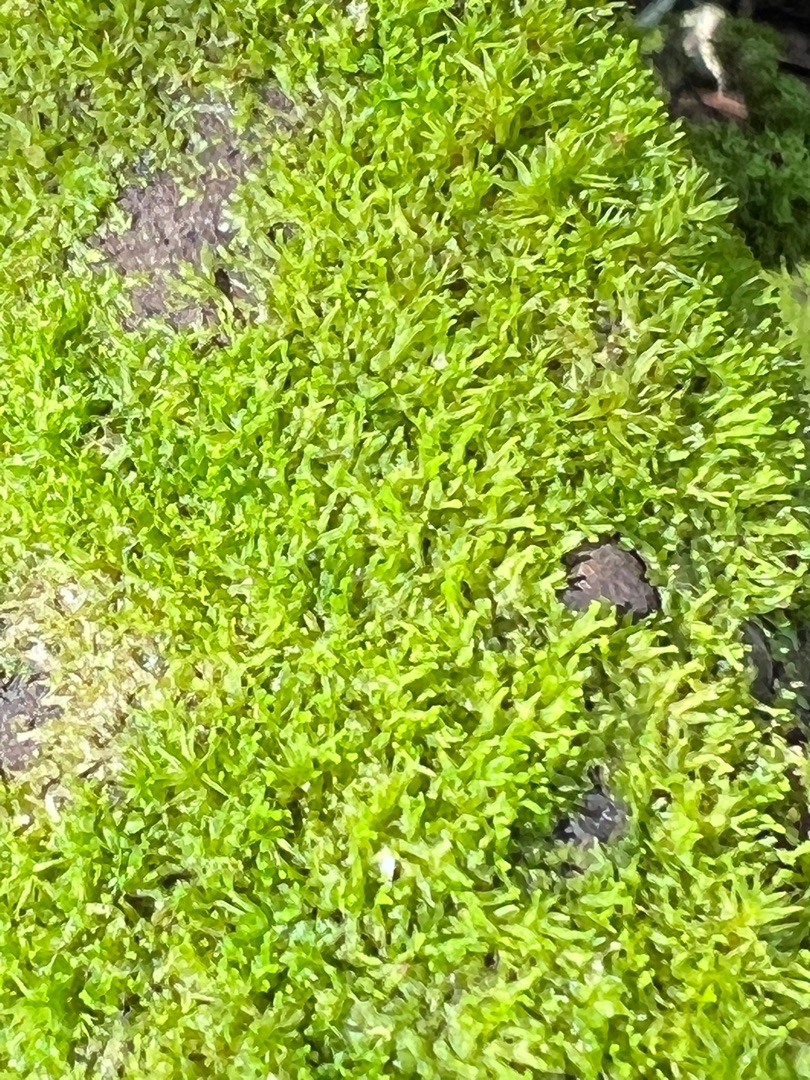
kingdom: Plantae
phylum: Marchantiophyta
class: Jungermanniopsida
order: Metzgeriales
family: Aneuraceae
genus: Riccardia
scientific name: Riccardia palmata
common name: Blågrøn gaffelløv
